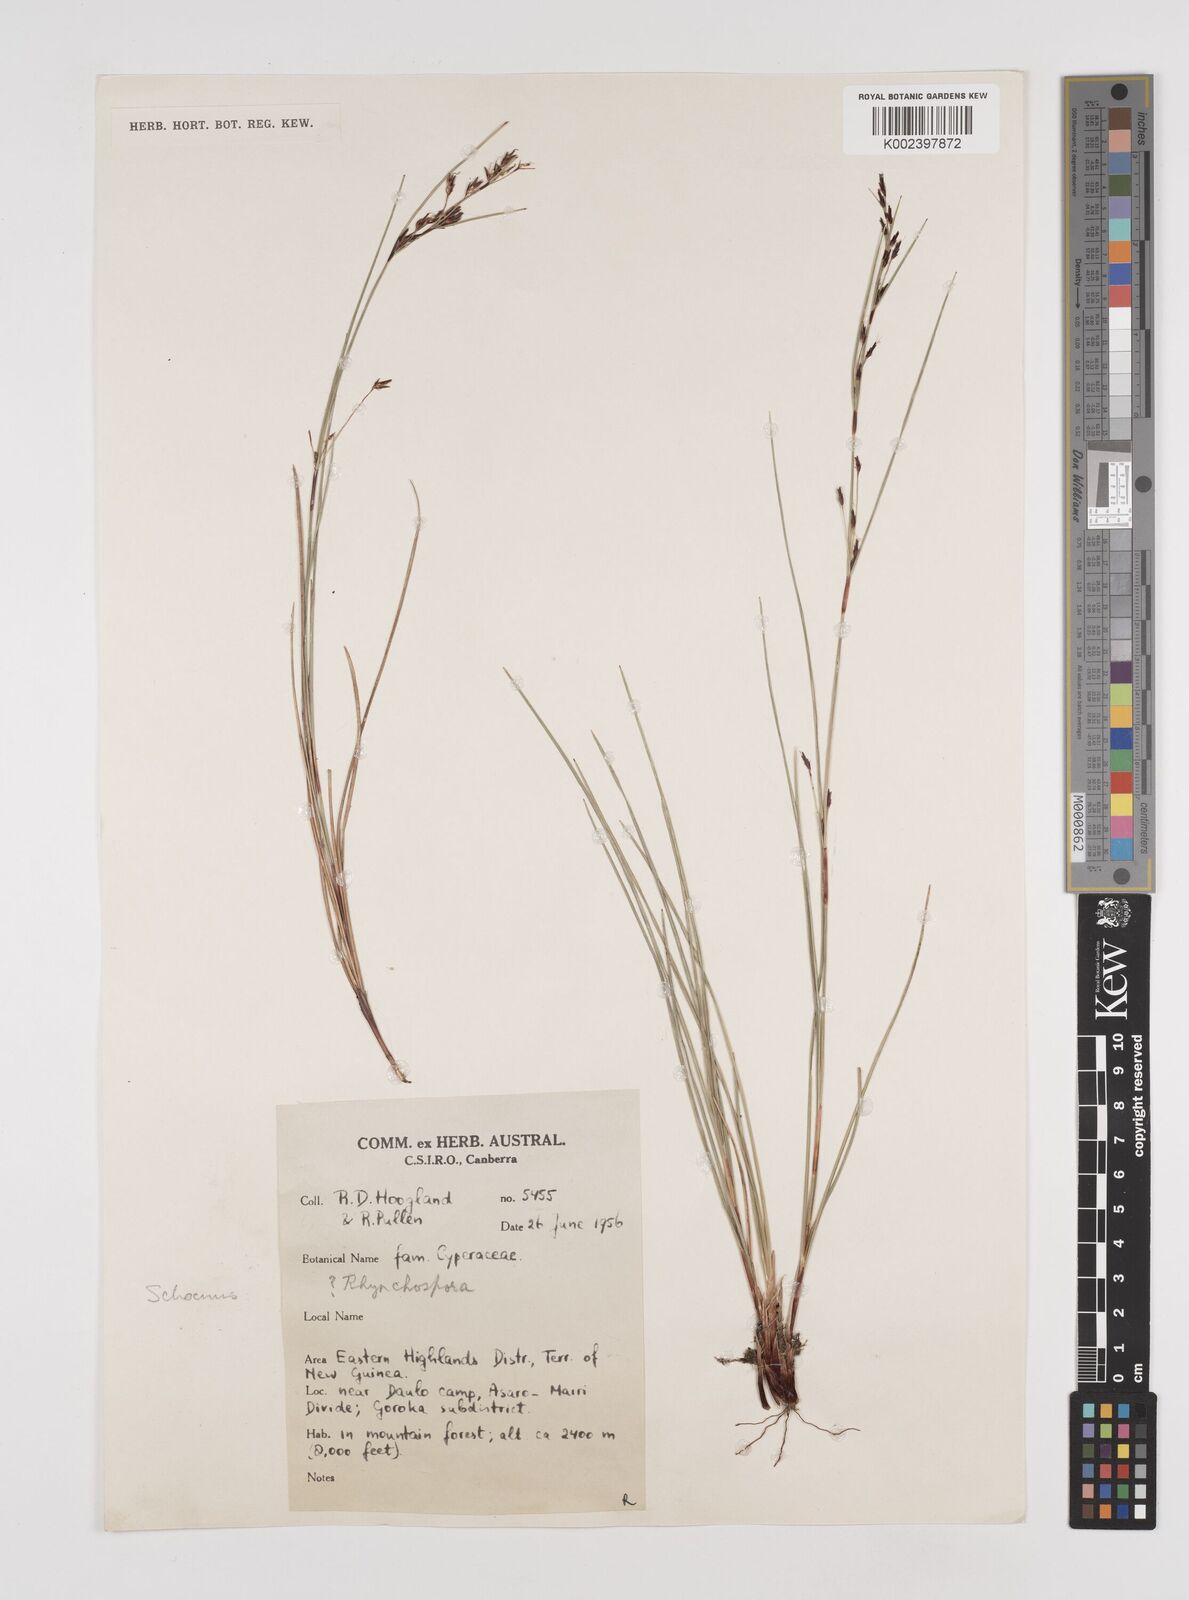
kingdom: Plantae
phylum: Tracheophyta
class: Liliopsida
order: Poales
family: Cyperaceae
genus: Schoenus
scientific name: Schoenus curvulus
